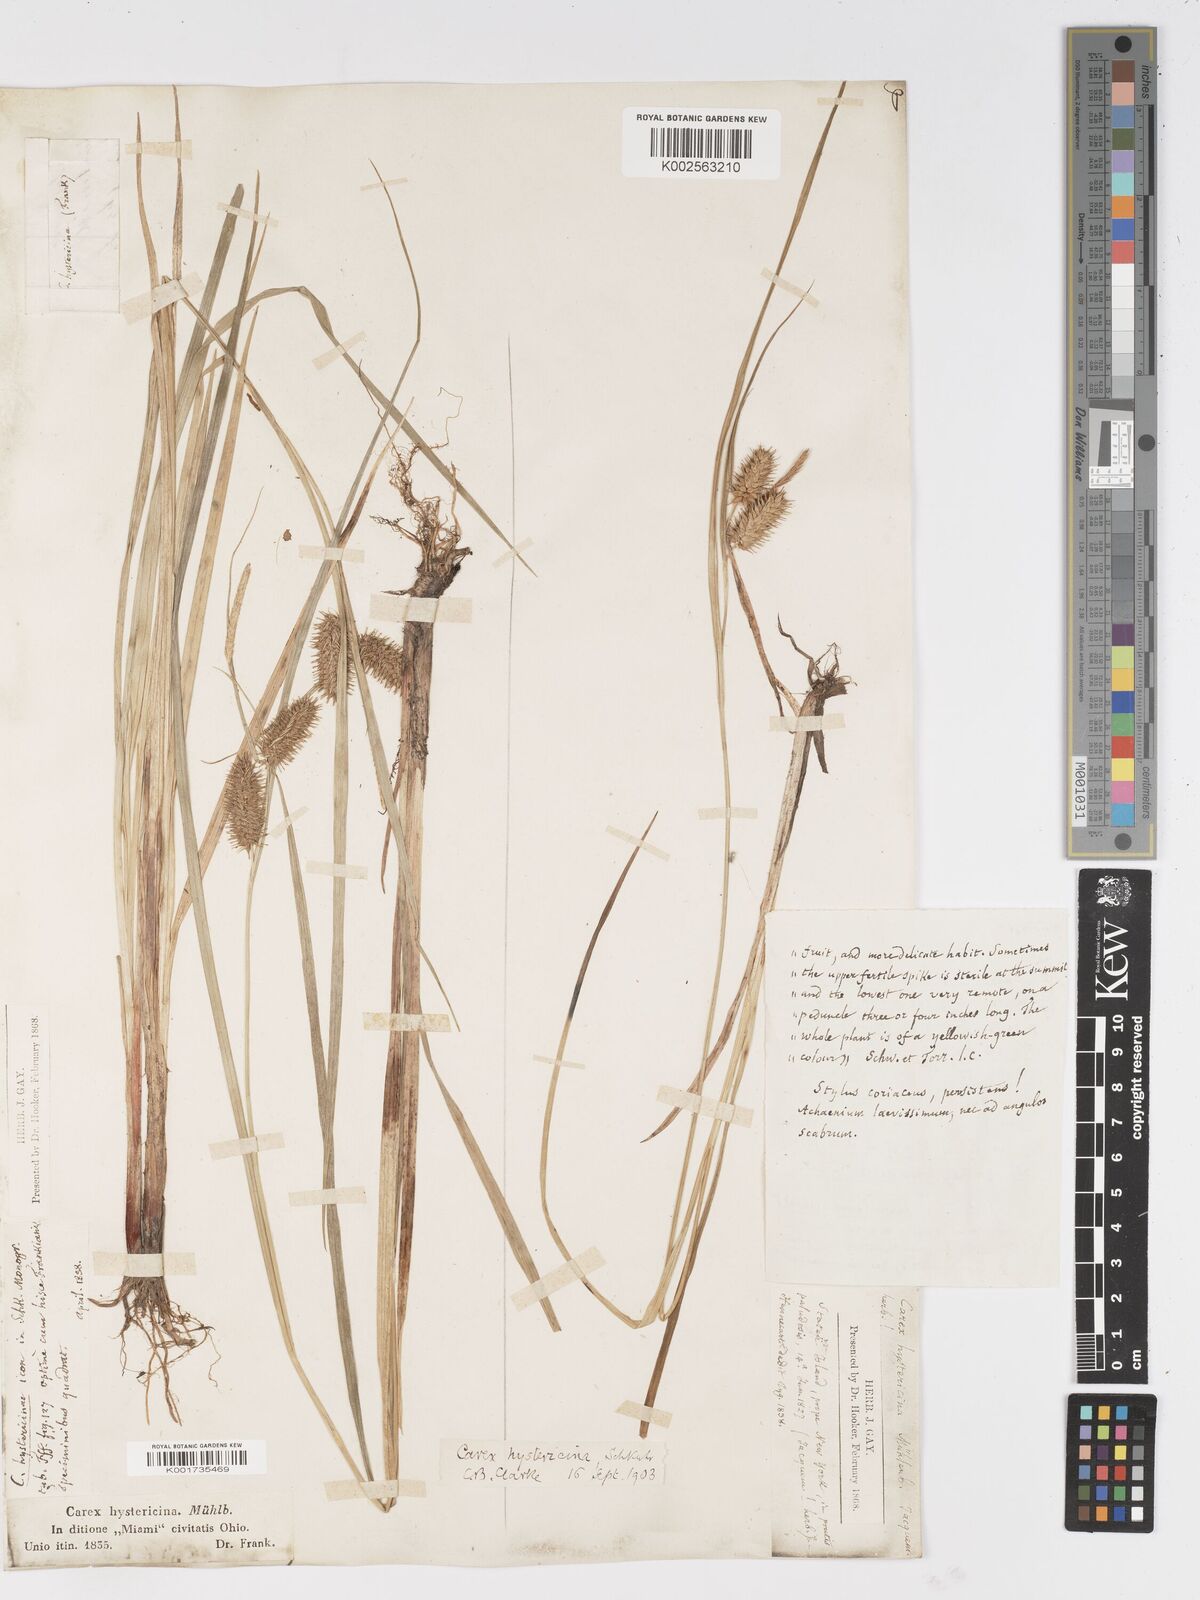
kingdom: Plantae
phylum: Tracheophyta
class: Liliopsida
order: Poales
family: Cyperaceae
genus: Carex
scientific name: Carex hystericina
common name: Bottlebrush sedge
